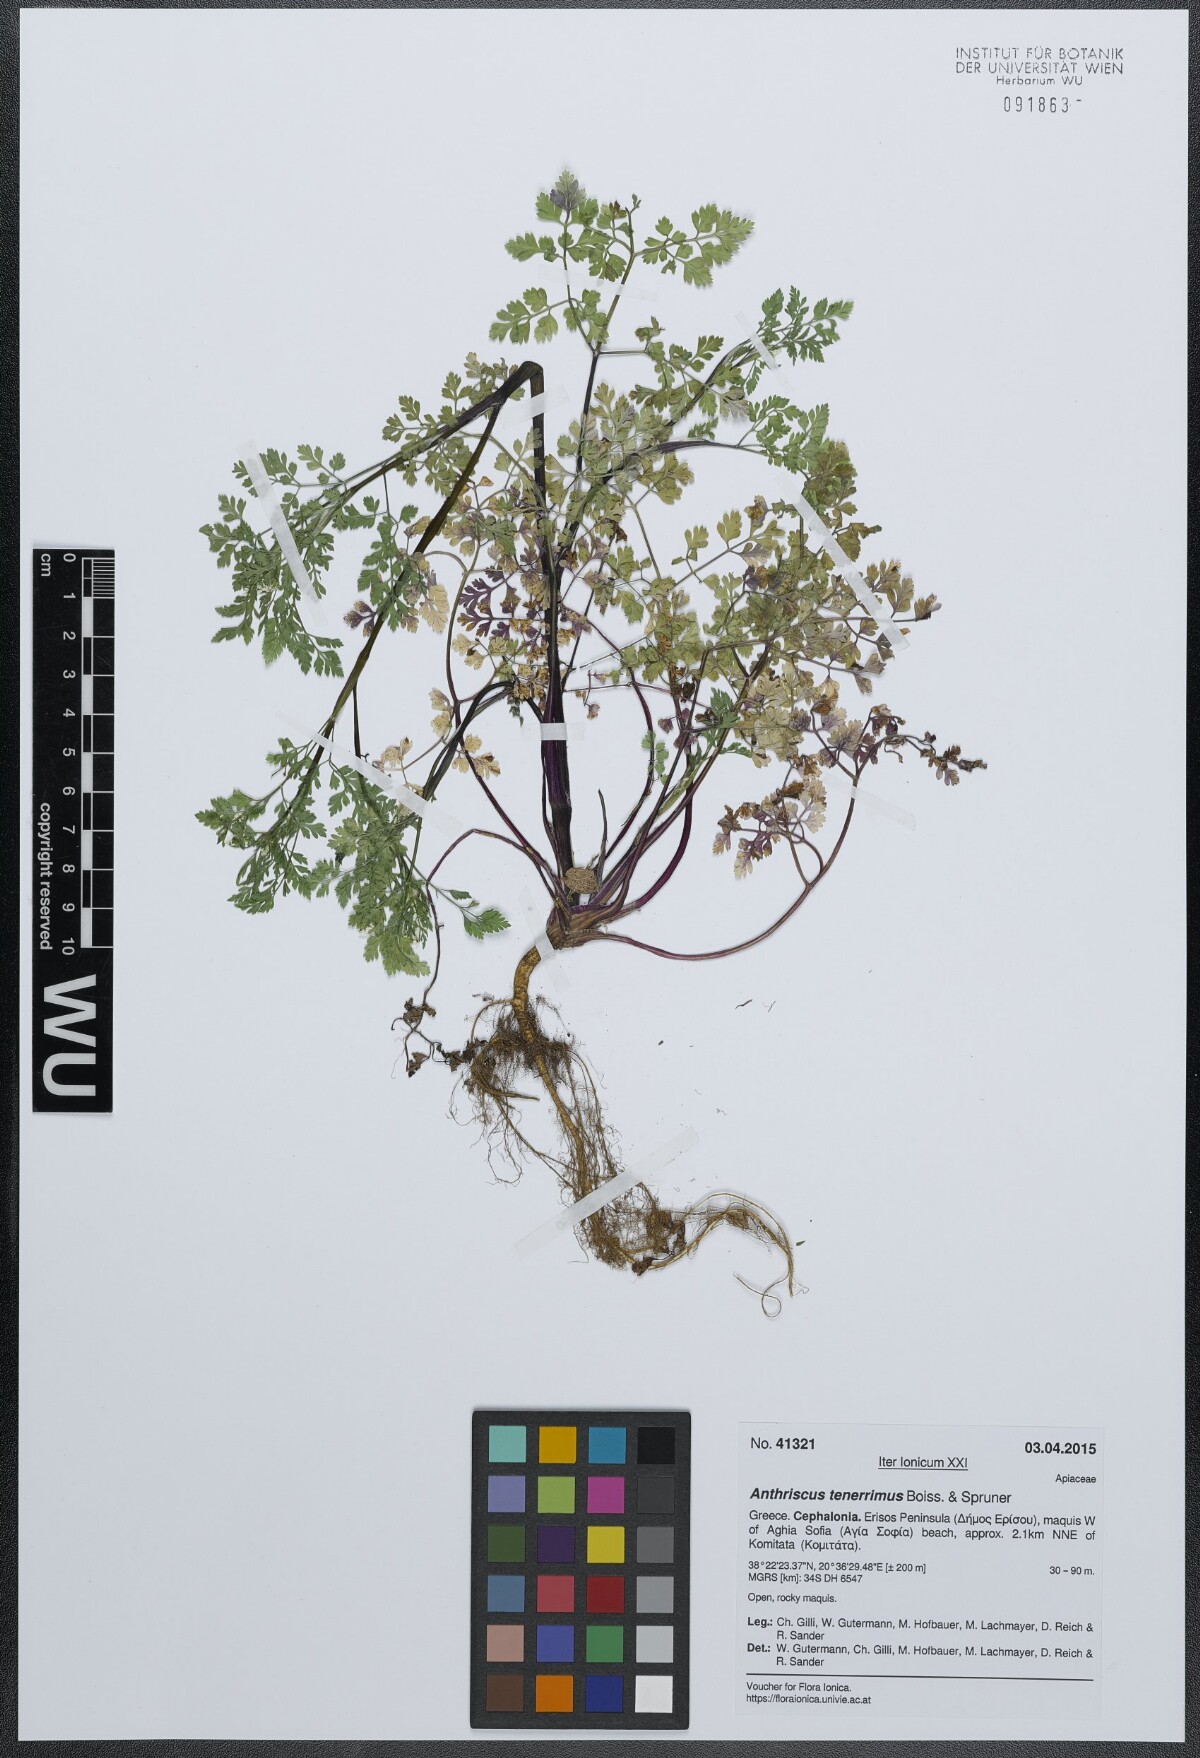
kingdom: Plantae
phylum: Tracheophyta
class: Magnoliopsida
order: Apiales
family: Apiaceae
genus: Anthriscus
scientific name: Anthriscus tenerrima
